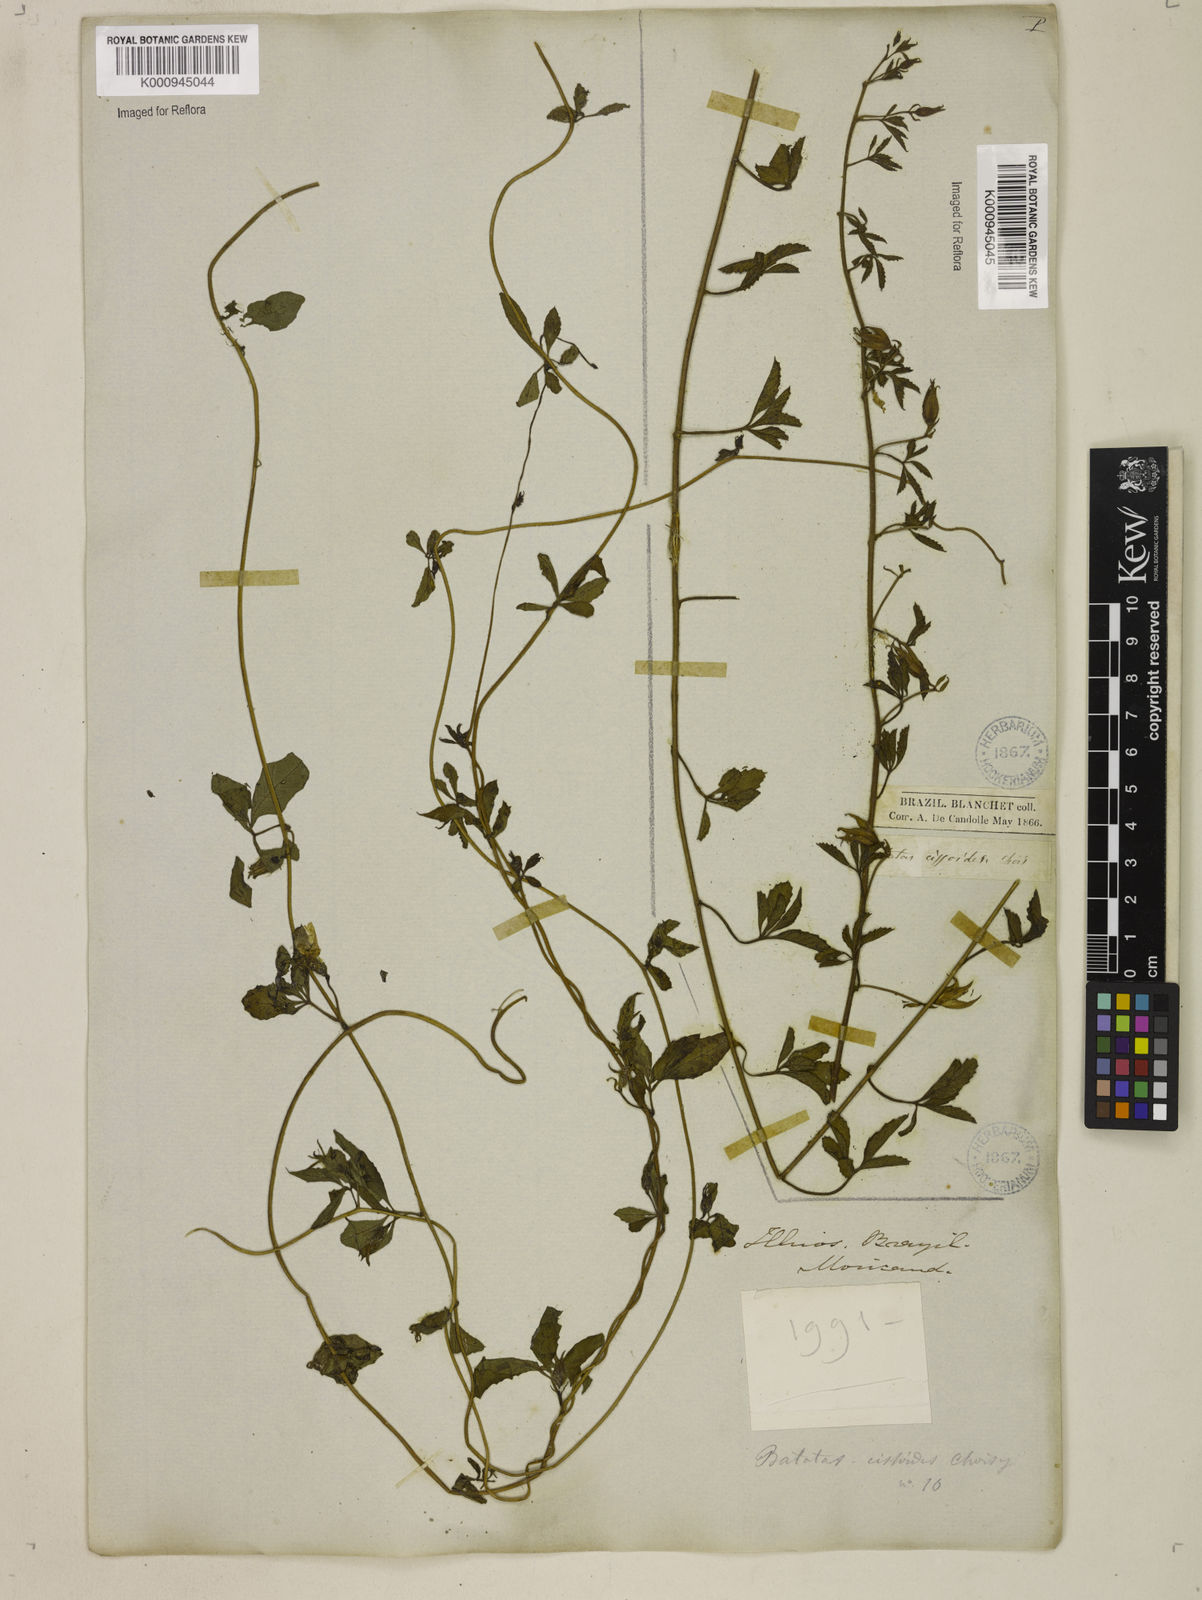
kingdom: Plantae
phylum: Tracheophyta
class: Magnoliopsida
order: Solanales
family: Convolvulaceae
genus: Distimake
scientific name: Distimake cissoides
